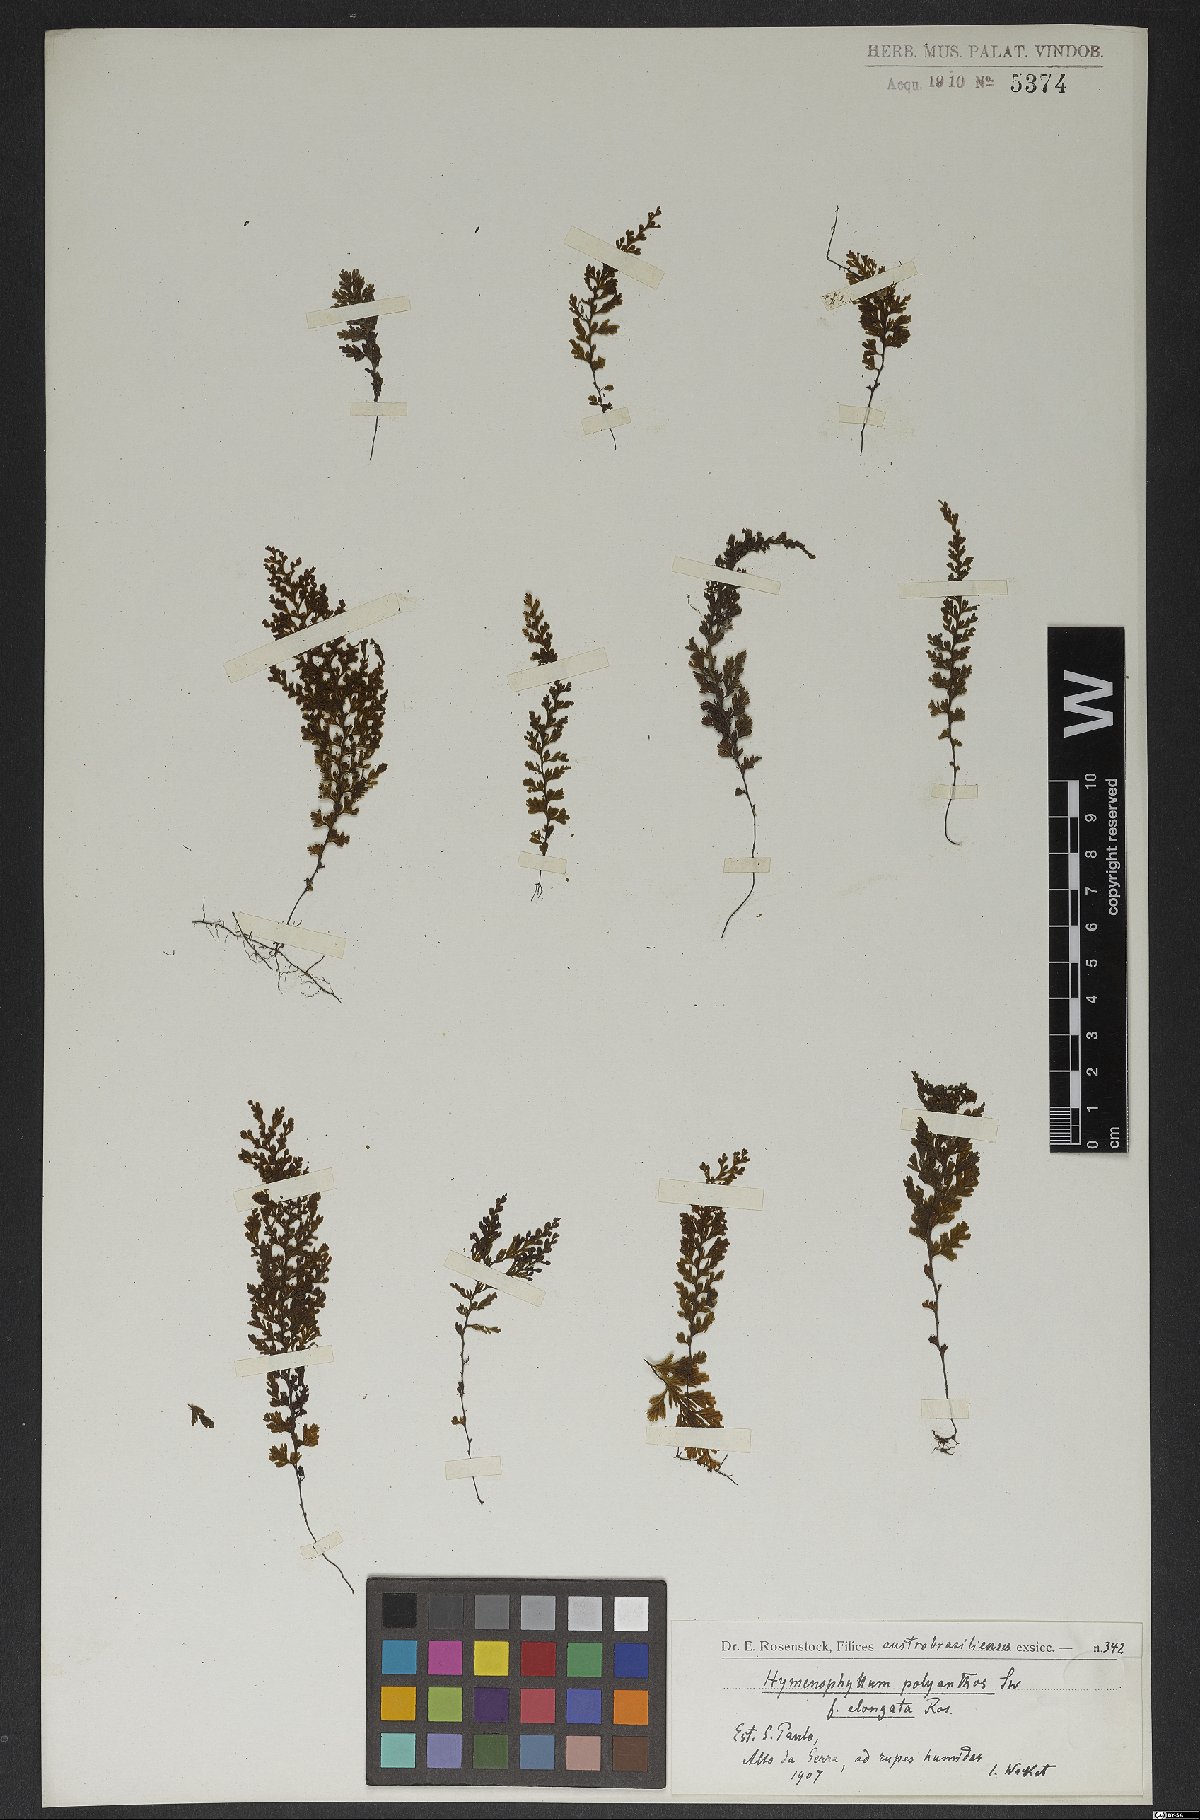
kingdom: Plantae
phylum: Tracheophyta
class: Polypodiopsida
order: Hymenophyllales
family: Hymenophyllaceae
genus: Hymenophyllum
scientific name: Hymenophyllum polyanthos
